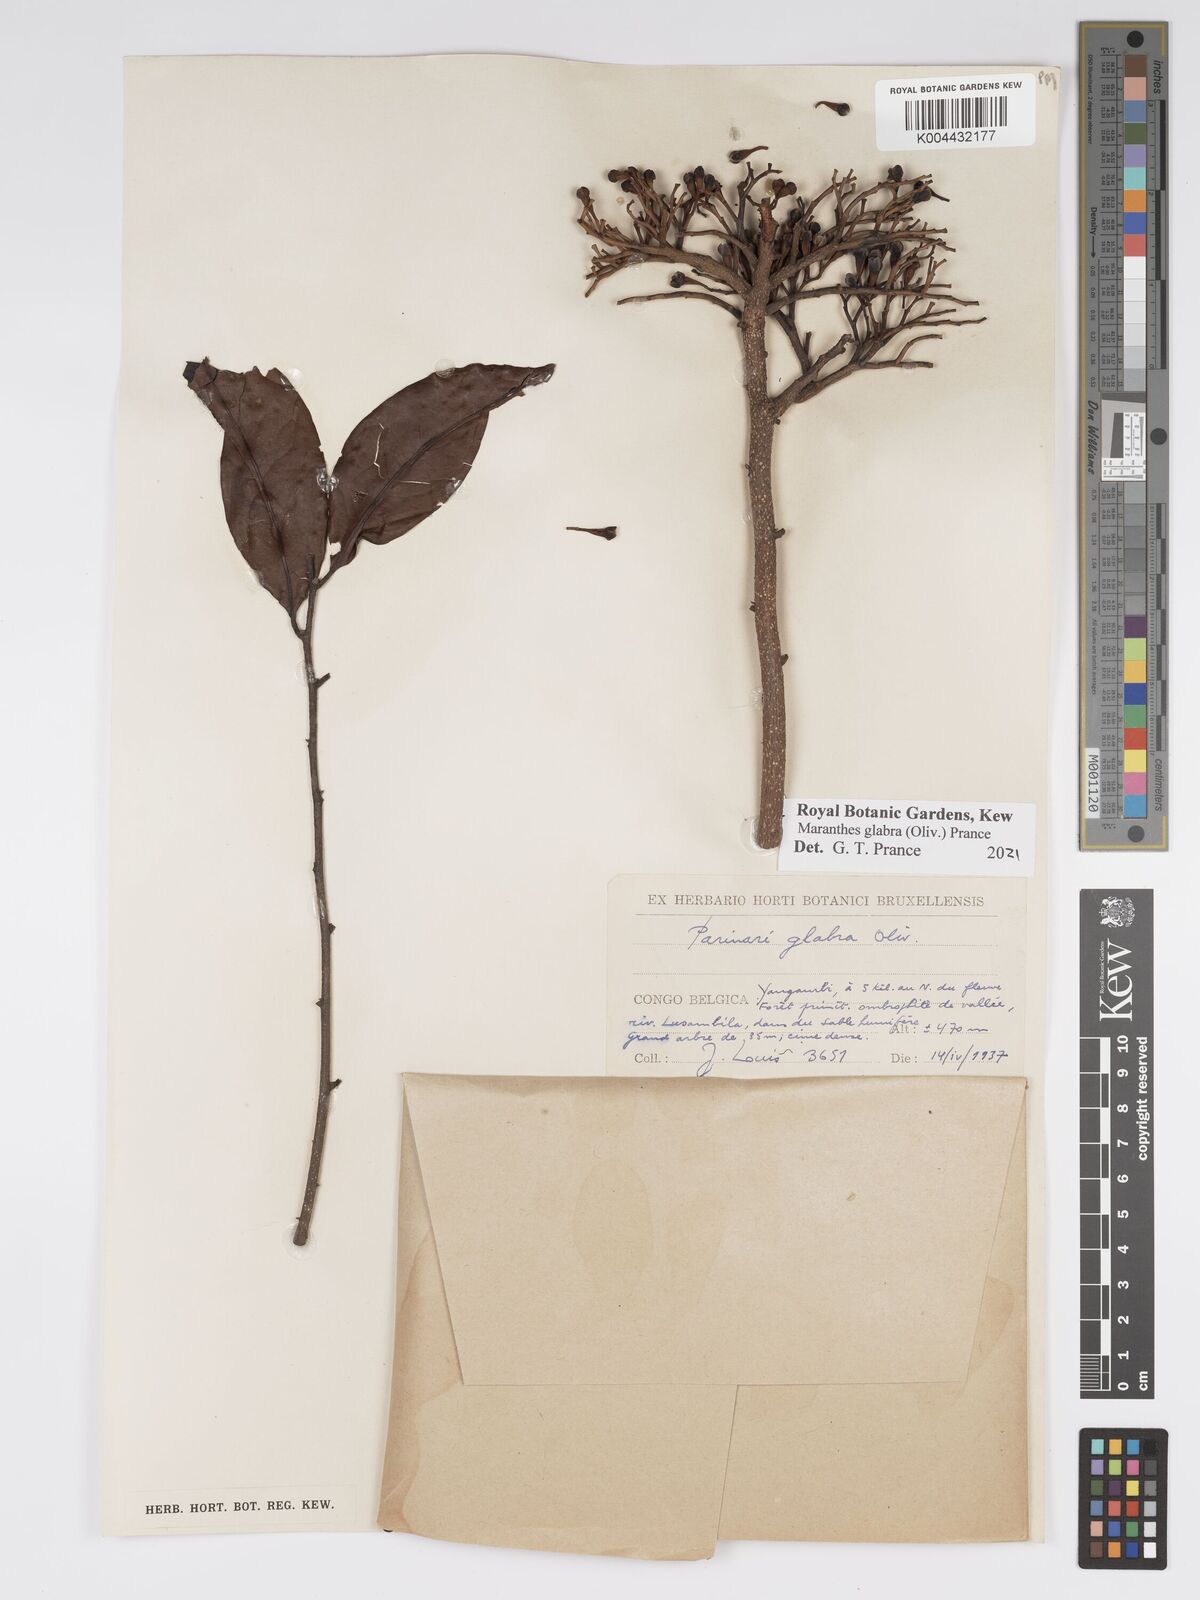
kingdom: Plantae
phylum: Tracheophyta
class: Magnoliopsida
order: Malpighiales
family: Chrysobalanaceae
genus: Maranthes
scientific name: Maranthes glabra
